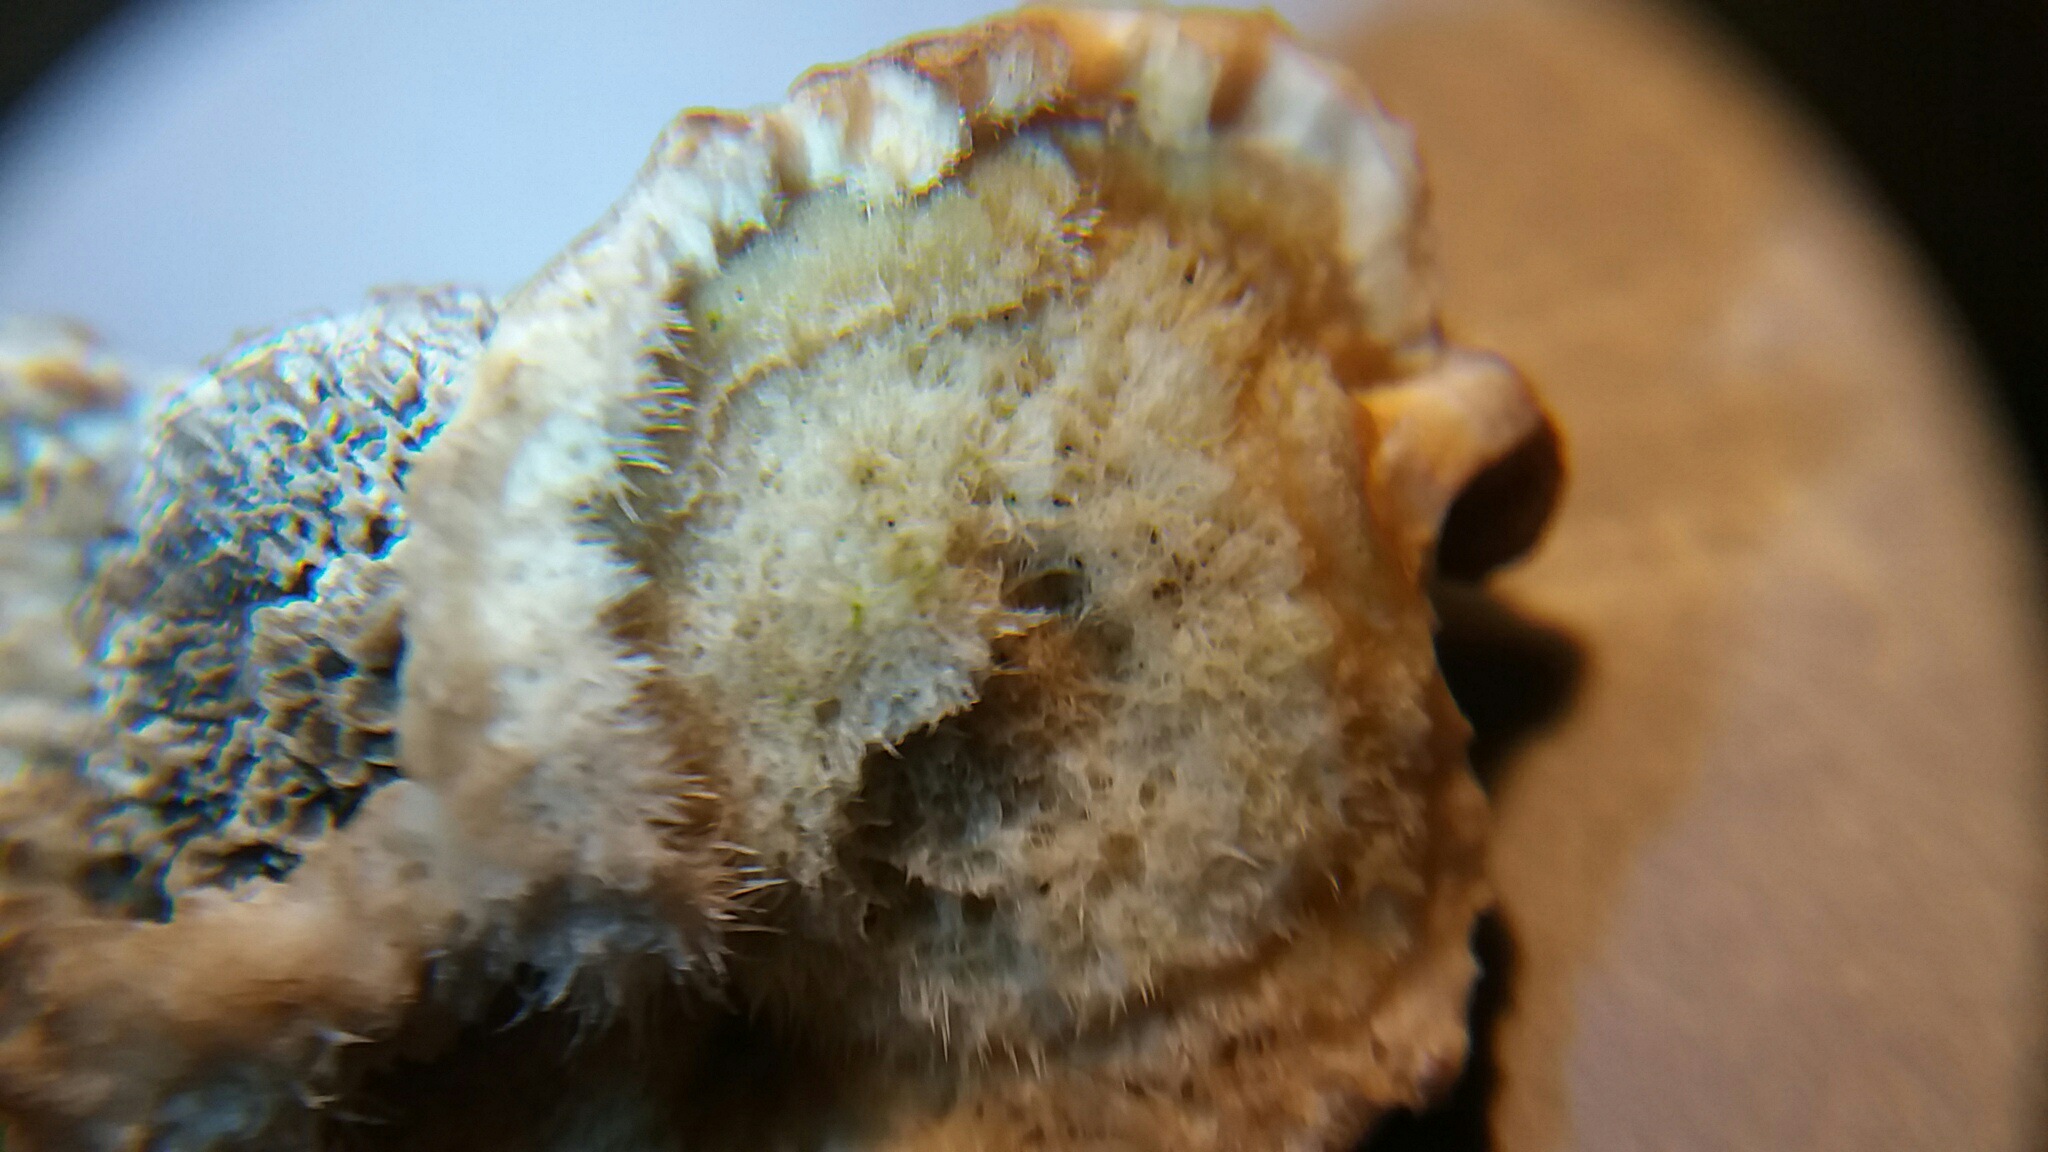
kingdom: Fungi
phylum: Basidiomycota
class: Agaricomycetes
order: Polyporales
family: Polyporaceae
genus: Trametes
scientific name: Trametes hirsuta
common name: håret læderporesvamp
